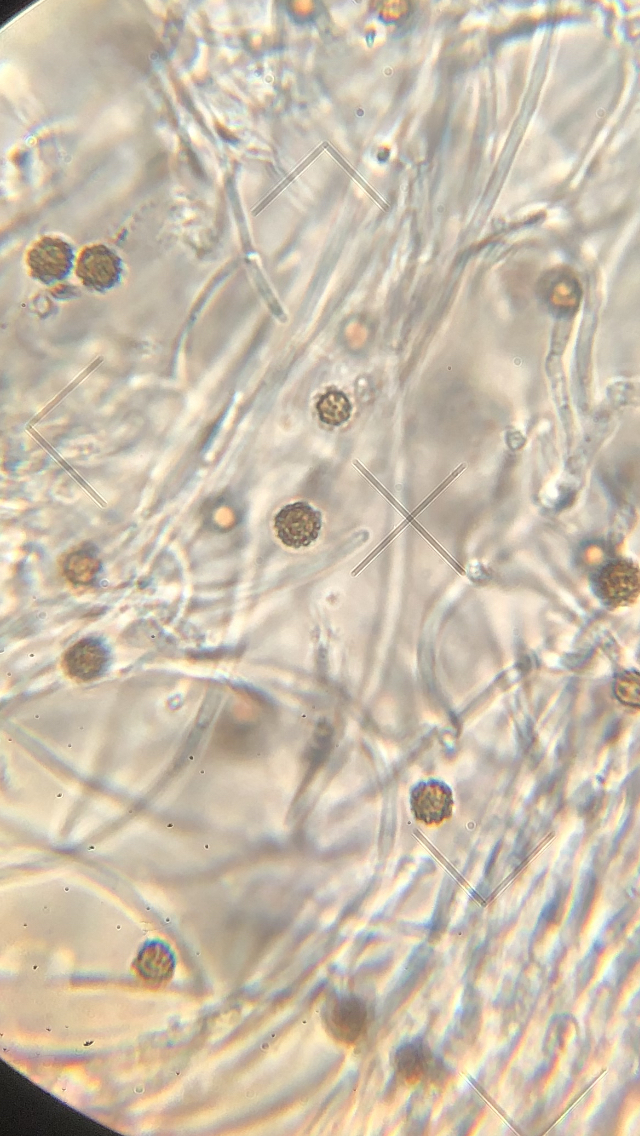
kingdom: Fungi
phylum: Ascomycota
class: Dothideomycetes
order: Acrospermales
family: Acrospermaceae
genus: Acrospermum
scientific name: Acrospermum compressum
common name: nælde-stængeltunge
